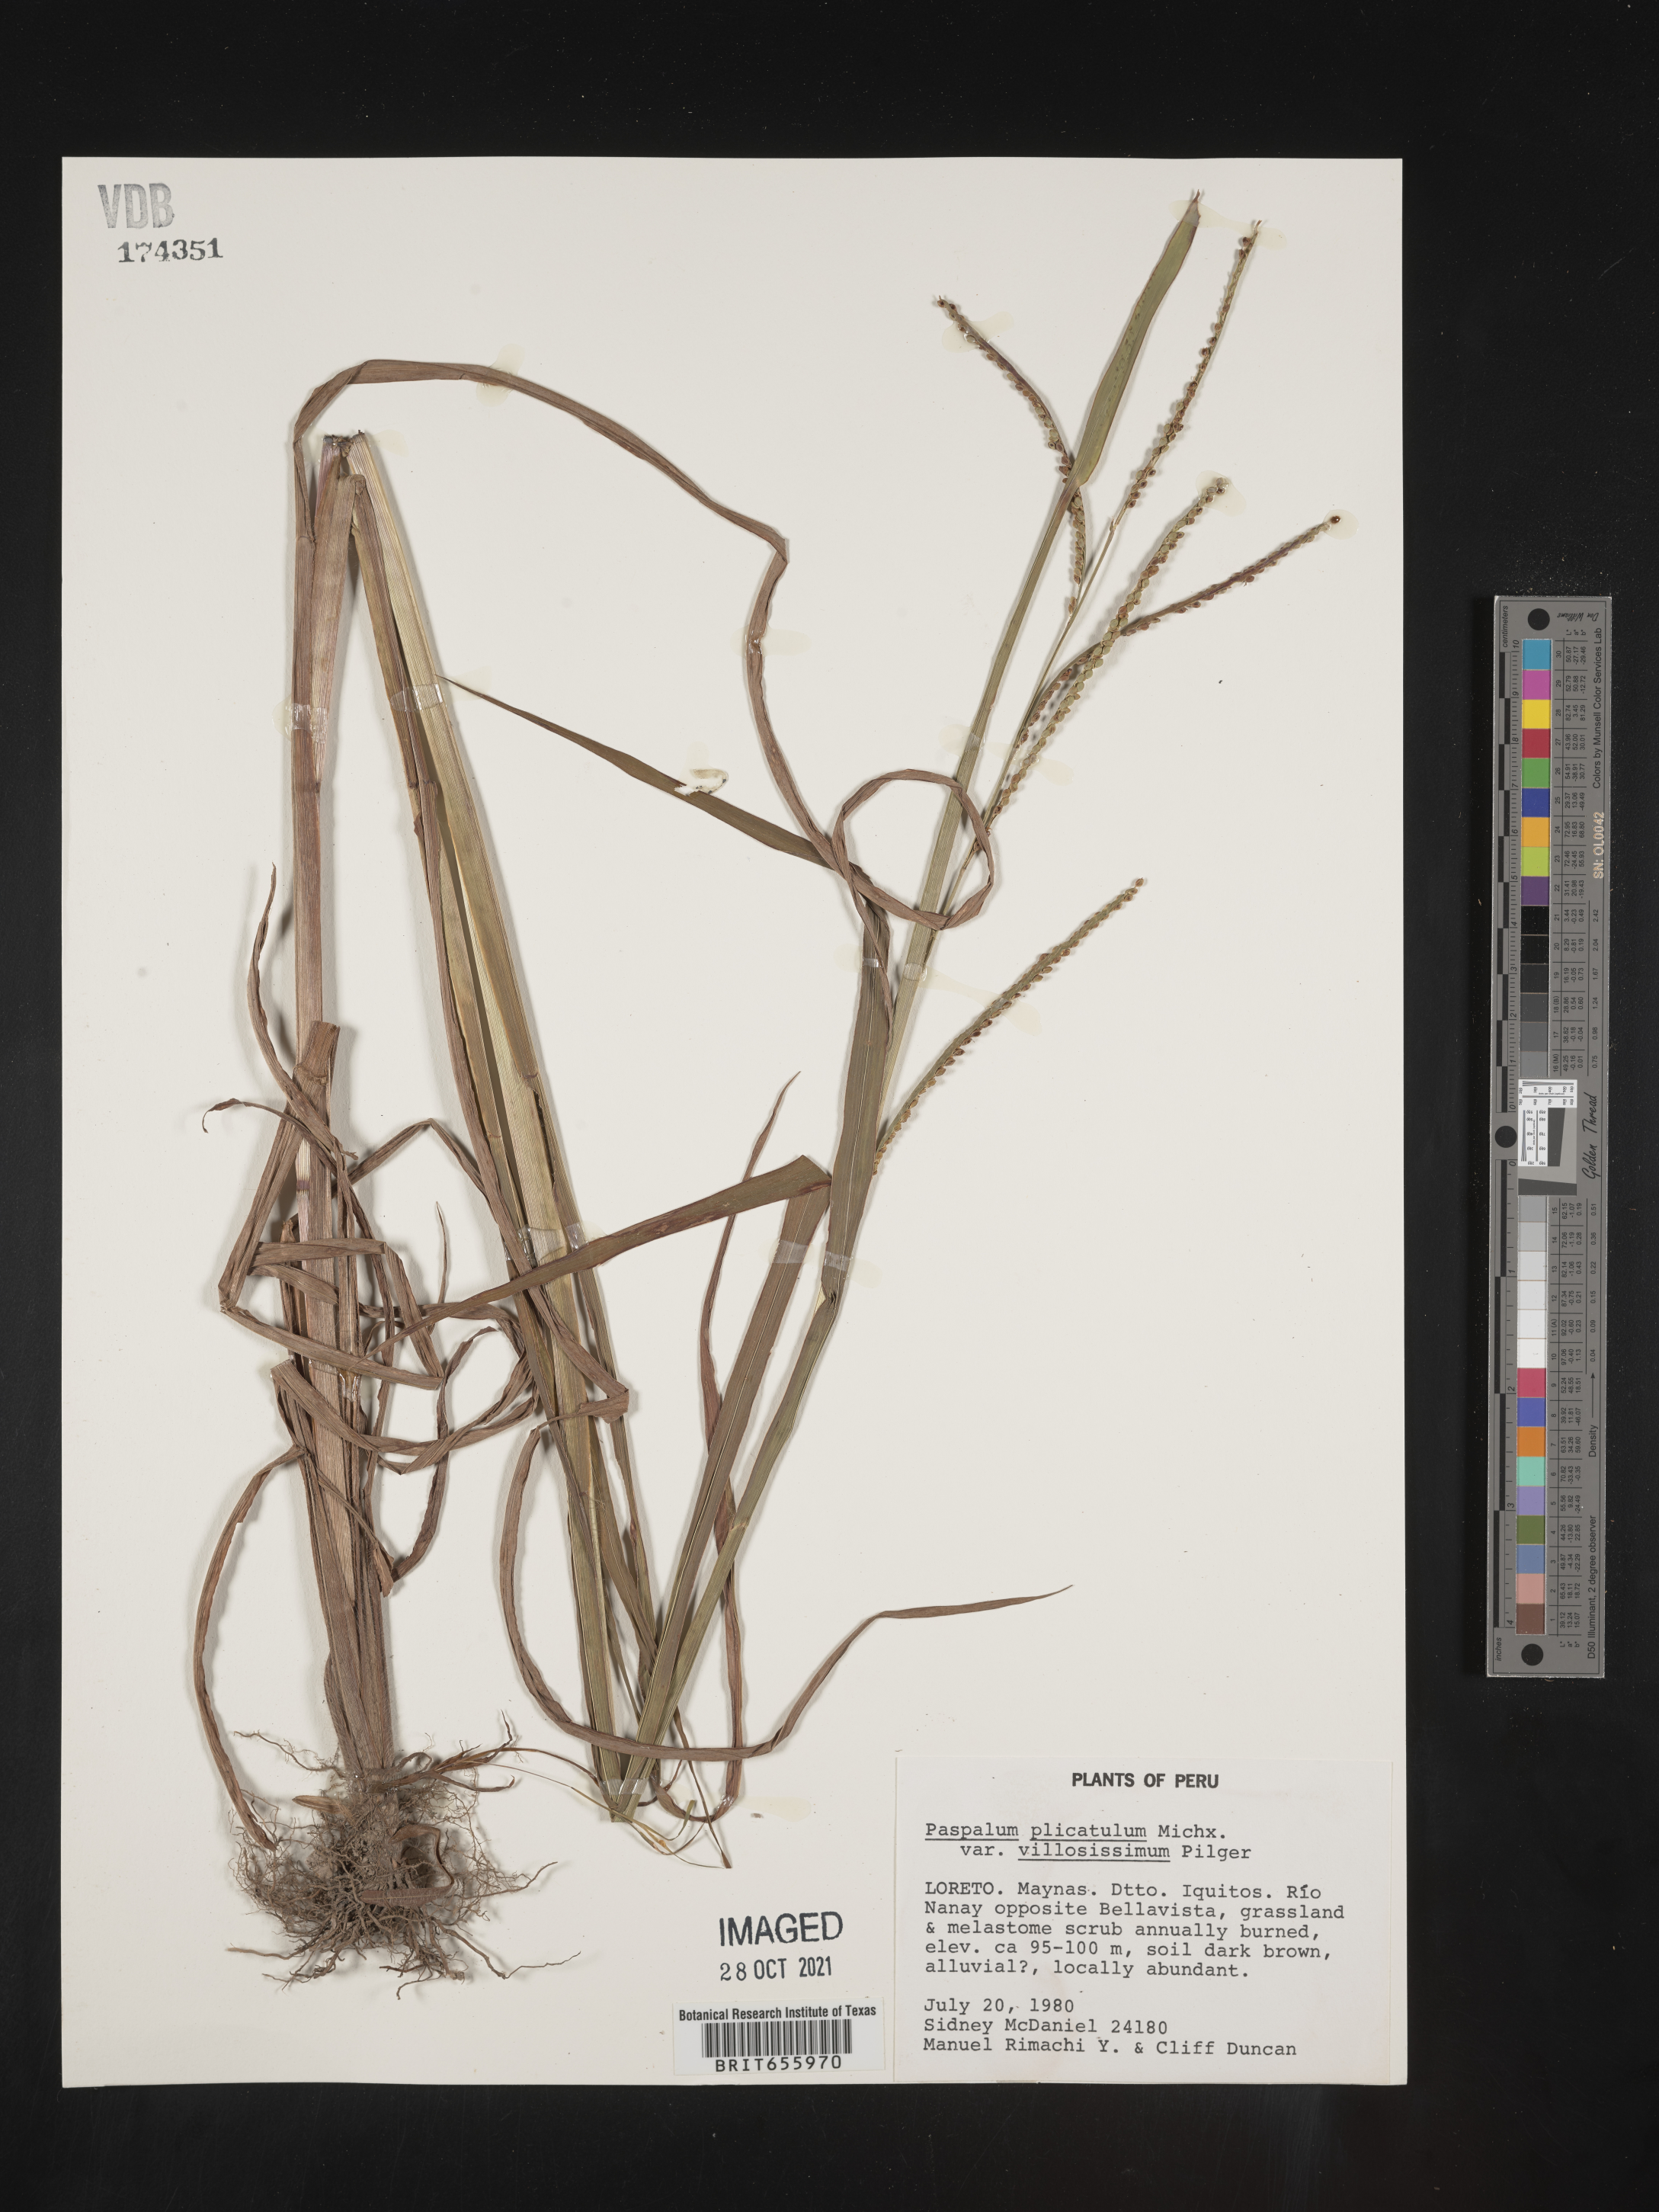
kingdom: Plantae
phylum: Tracheophyta
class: Liliopsida
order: Poales
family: Poaceae
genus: Paspalum
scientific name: Paspalum
